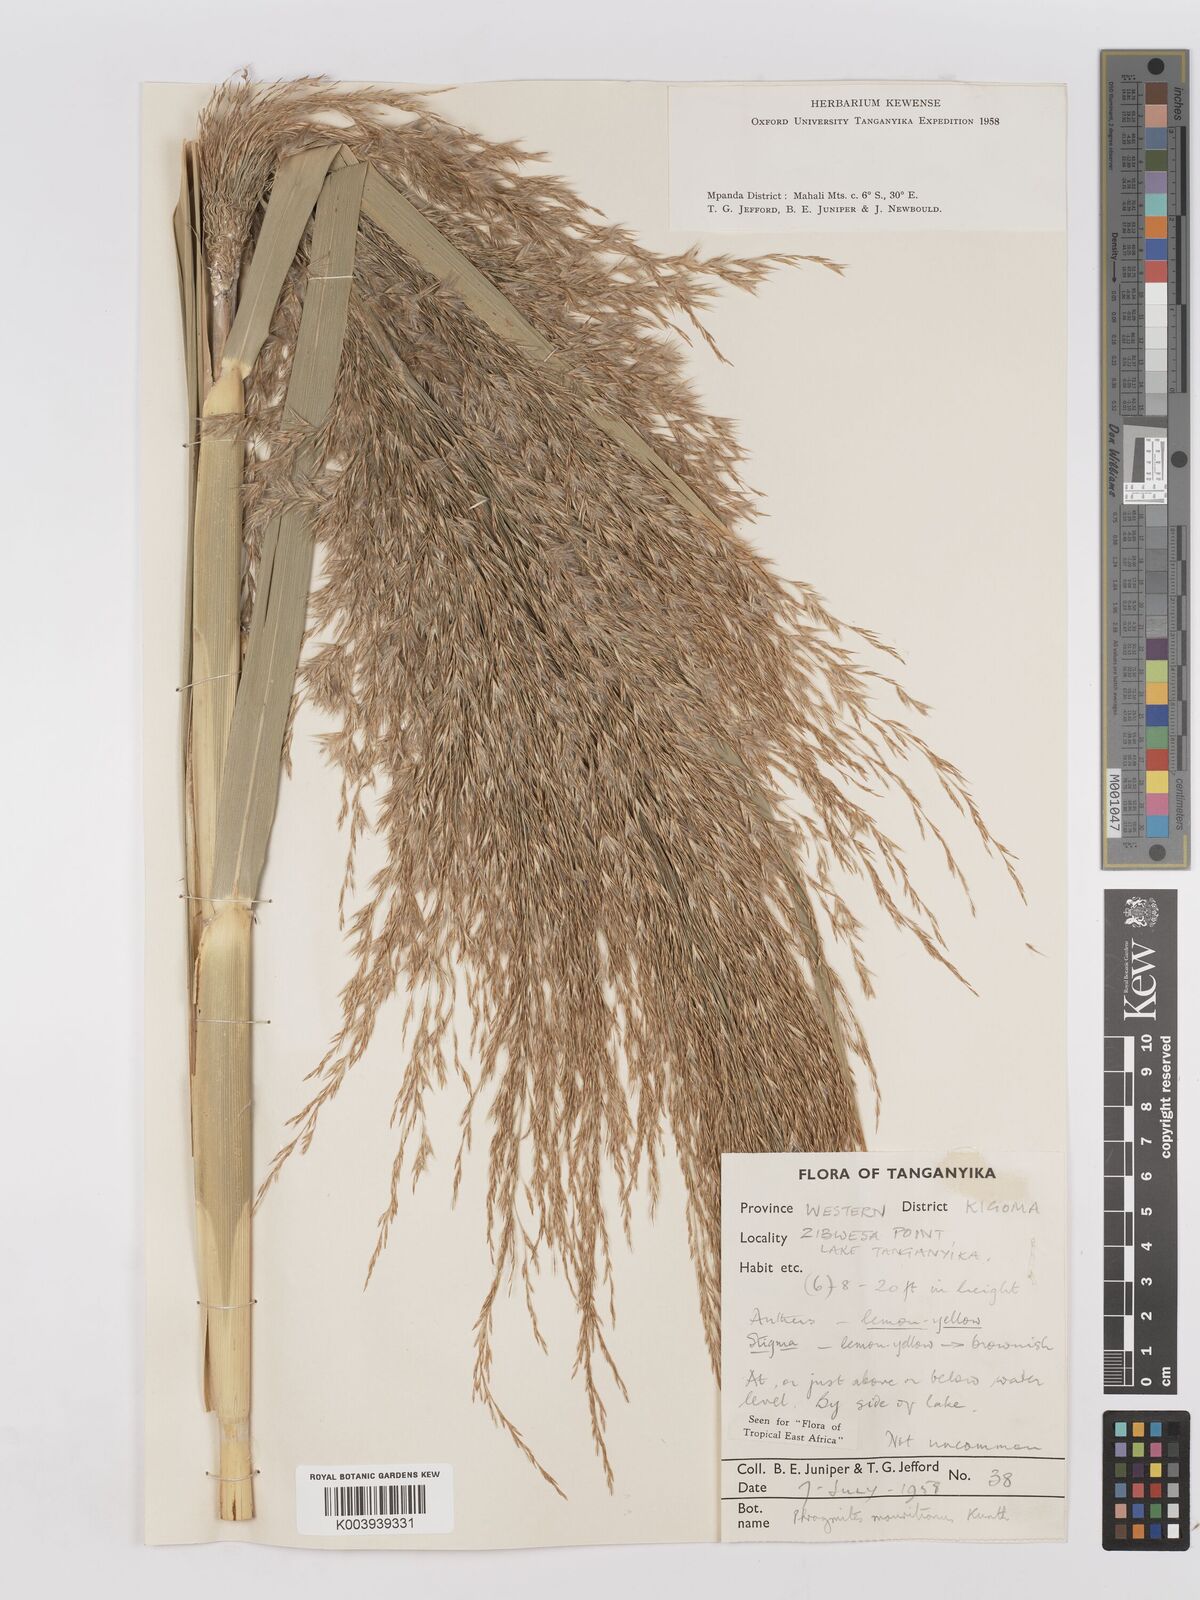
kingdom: Plantae
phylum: Tracheophyta
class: Liliopsida
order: Poales
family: Poaceae
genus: Phragmites
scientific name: Phragmites mauritianus
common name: Reed grass
